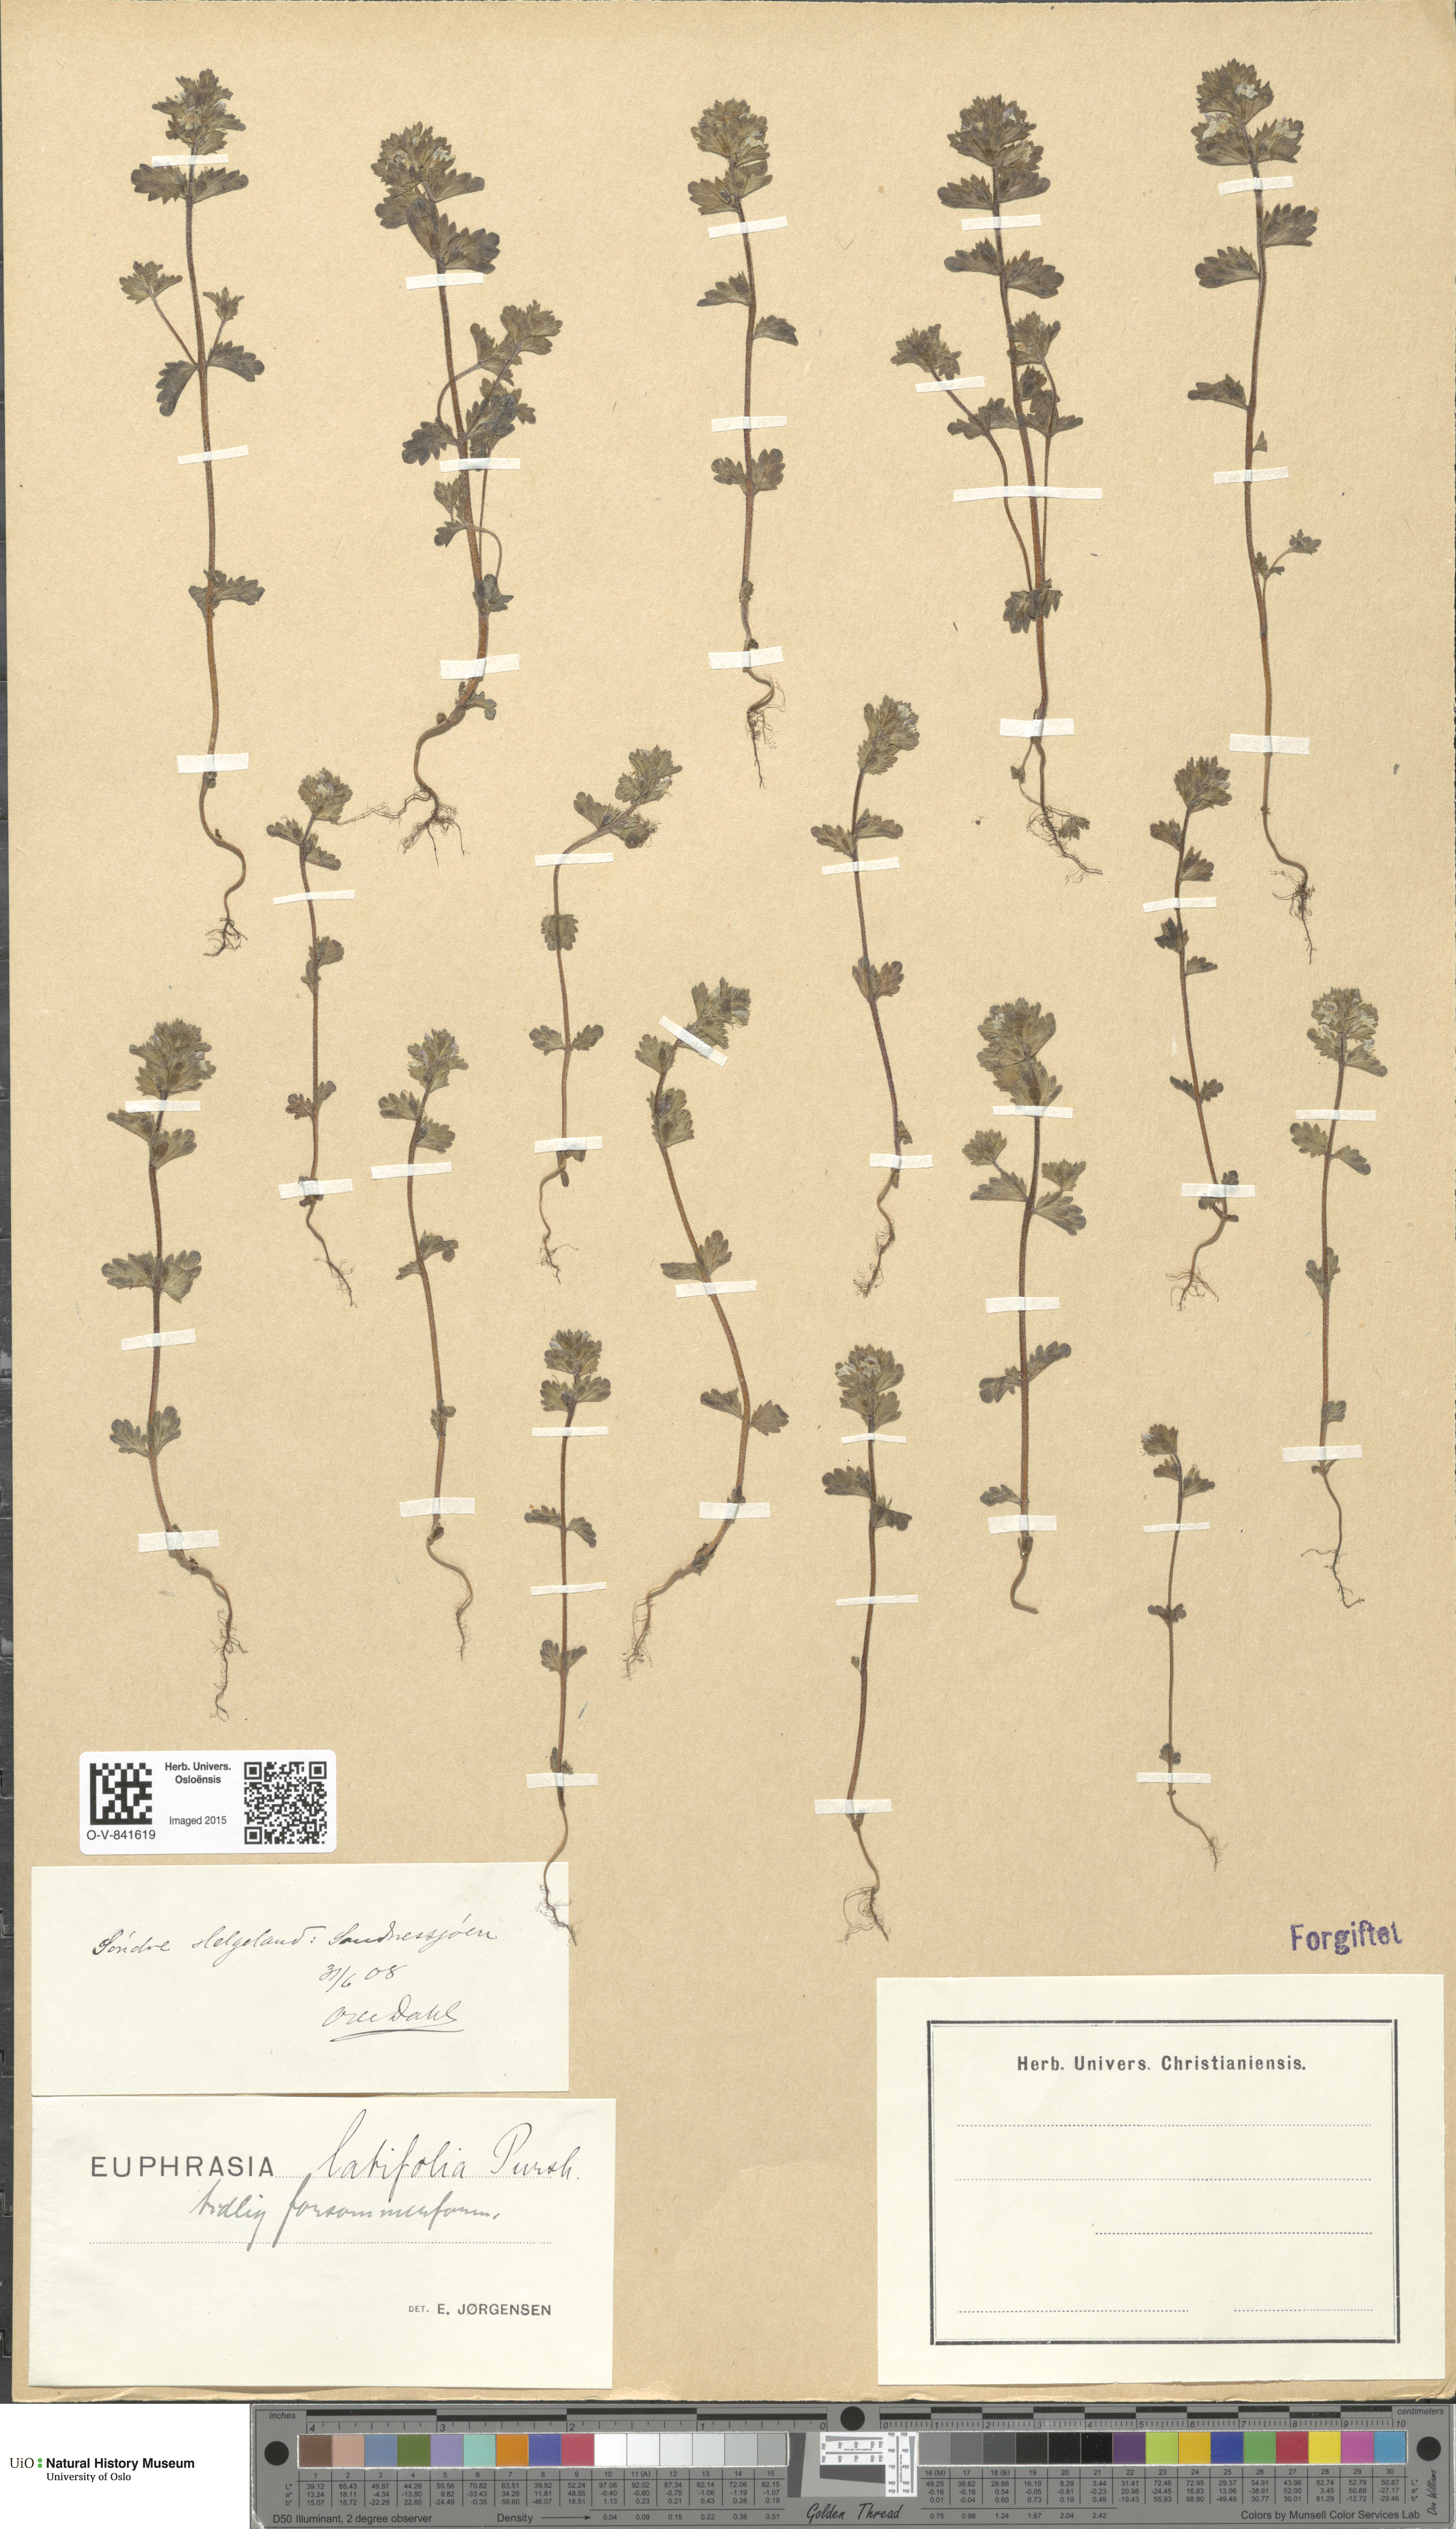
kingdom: Plantae
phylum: Tracheophyta
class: Magnoliopsida
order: Lamiales
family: Orobanchaceae
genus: Euphrasia
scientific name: Euphrasia wettsteinii
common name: Wettstein's eyebright
